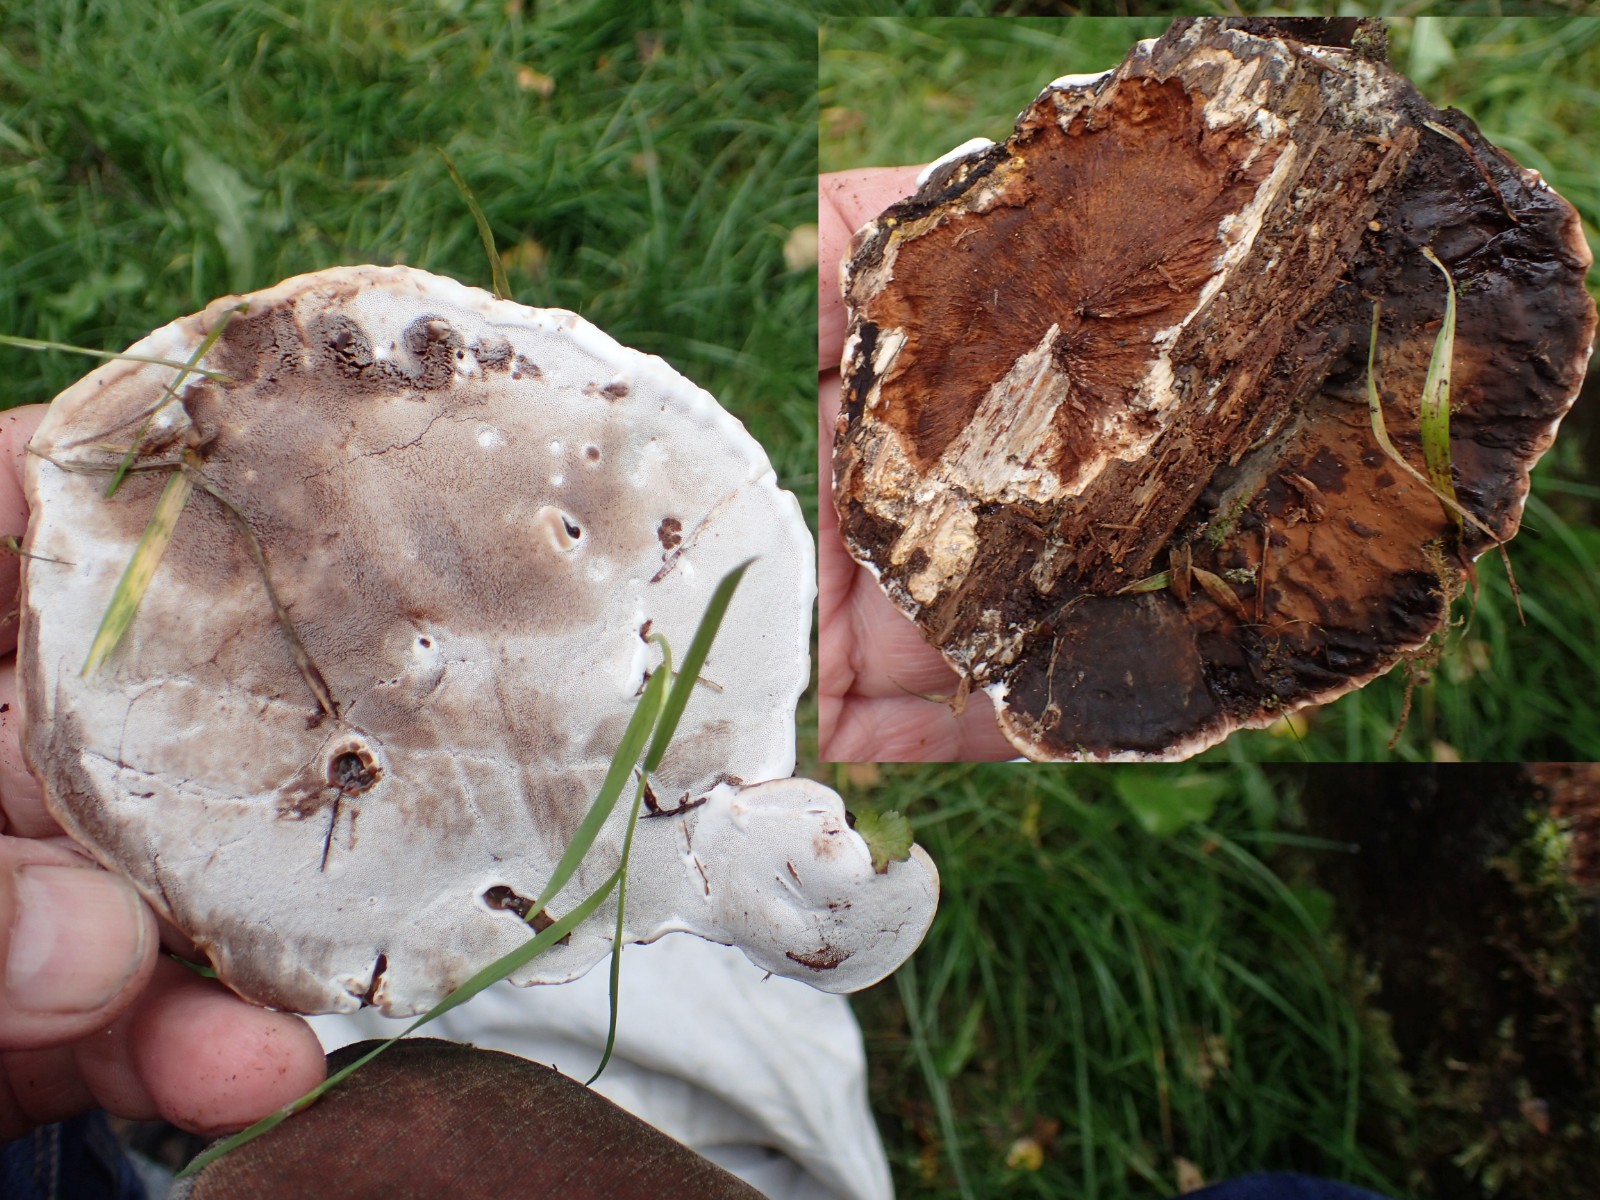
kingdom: Fungi
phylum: Basidiomycota
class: Agaricomycetes
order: Polyporales
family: Ischnodermataceae
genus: Ischnoderma
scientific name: Ischnoderma benzoinum
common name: gran-tjæreporesvamp
